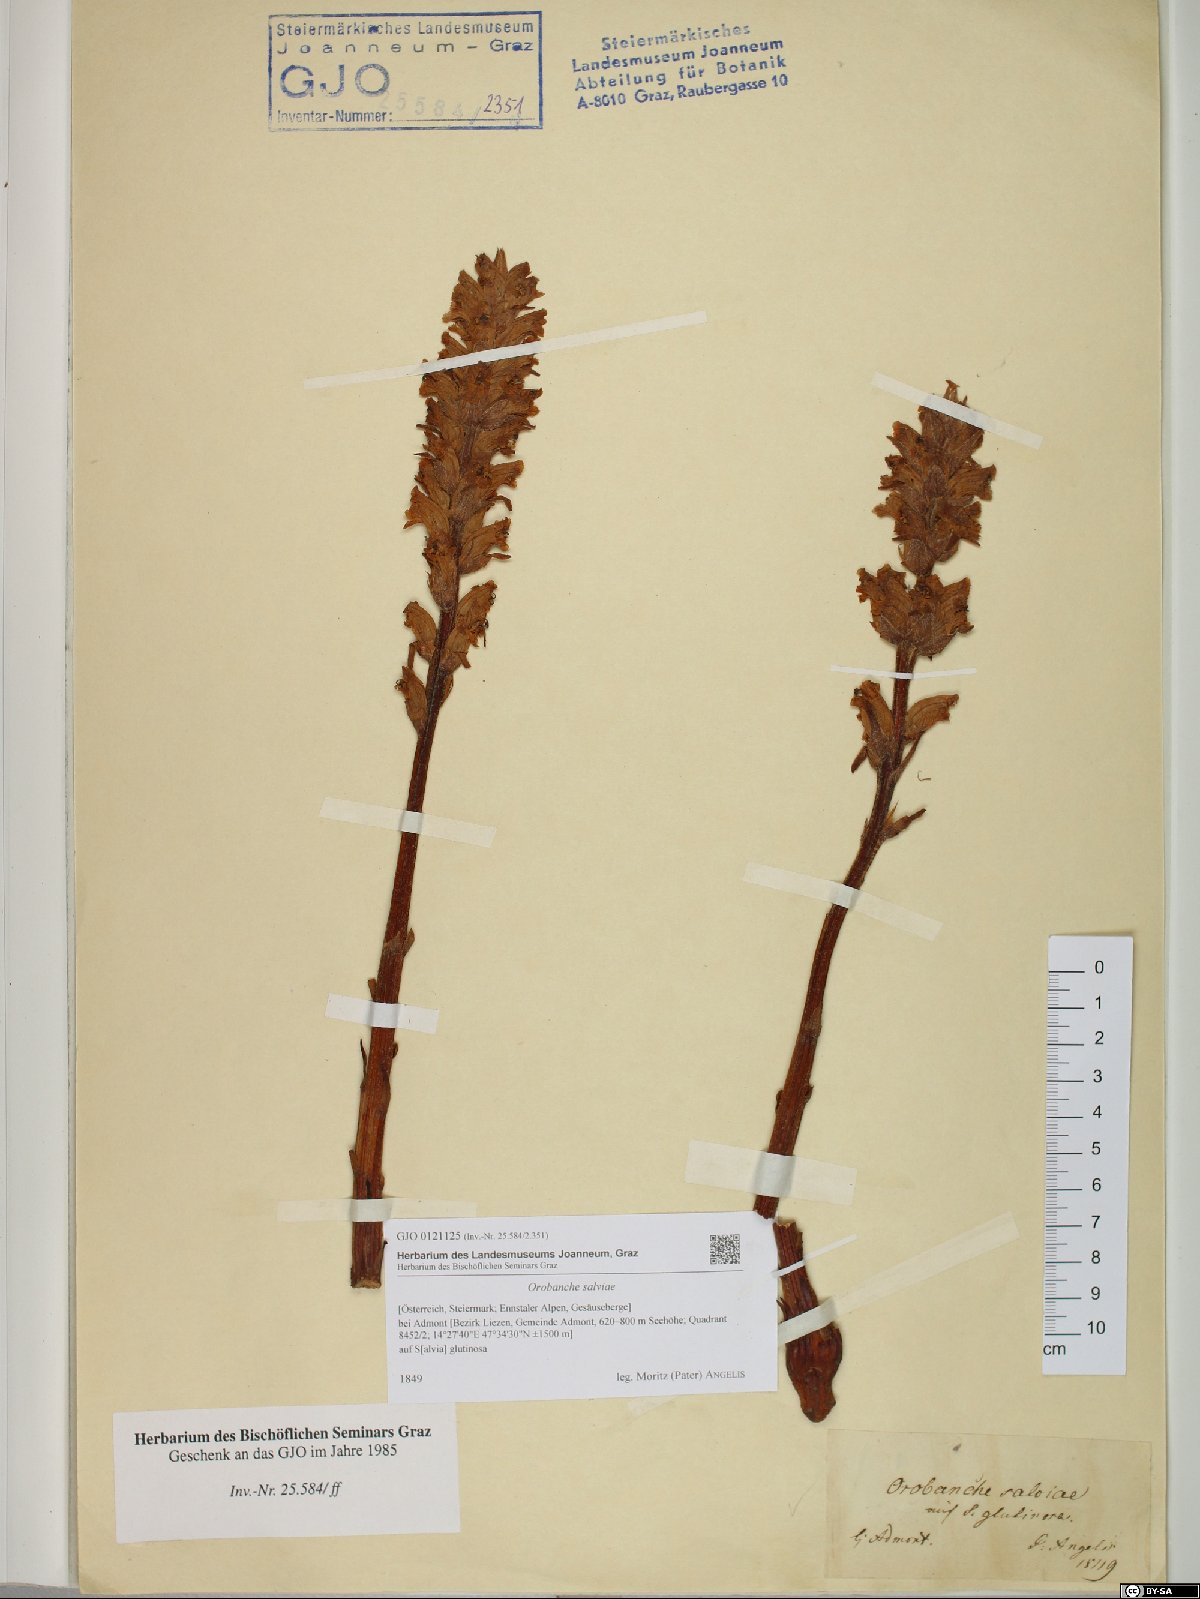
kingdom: Plantae
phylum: Tracheophyta
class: Magnoliopsida
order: Lamiales
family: Orobanchaceae
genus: Orobanche
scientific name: Orobanche salviae
